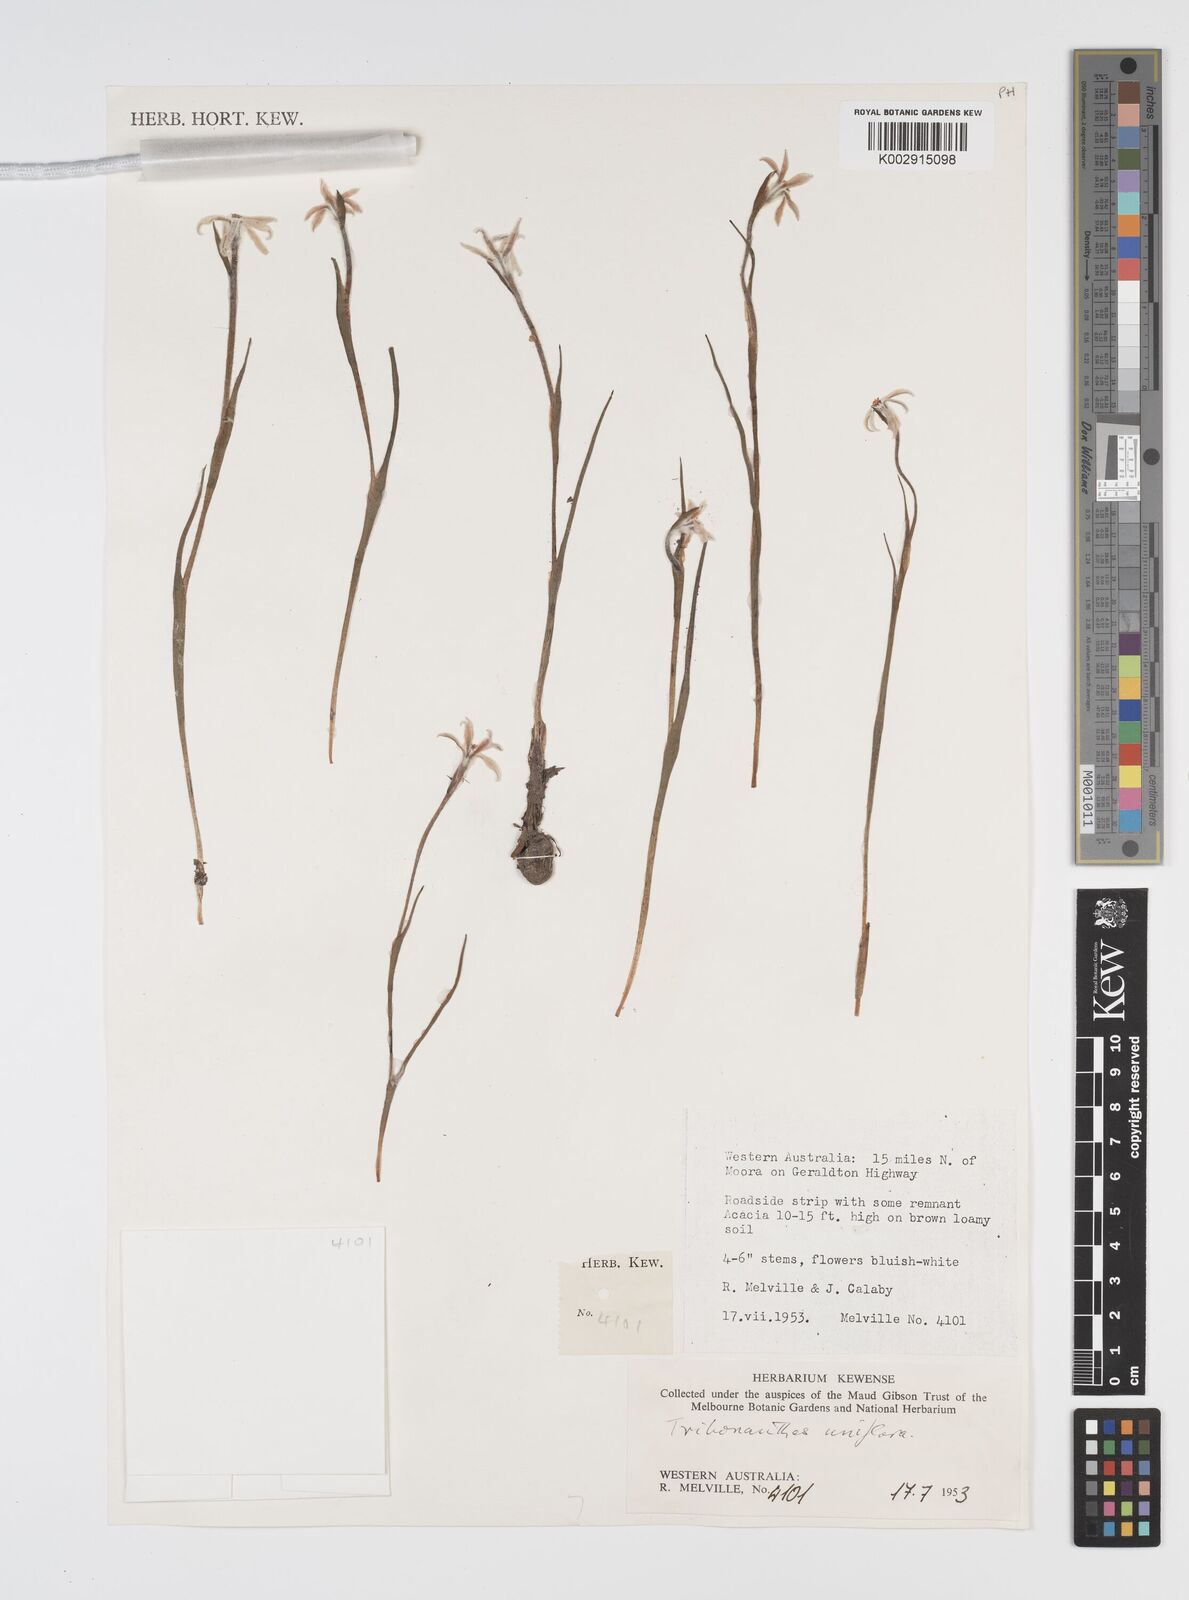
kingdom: Plantae
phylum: Tracheophyta
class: Liliopsida
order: Commelinales
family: Haemodoraceae
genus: Tribonanthes
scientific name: Tribonanthes uniflora
